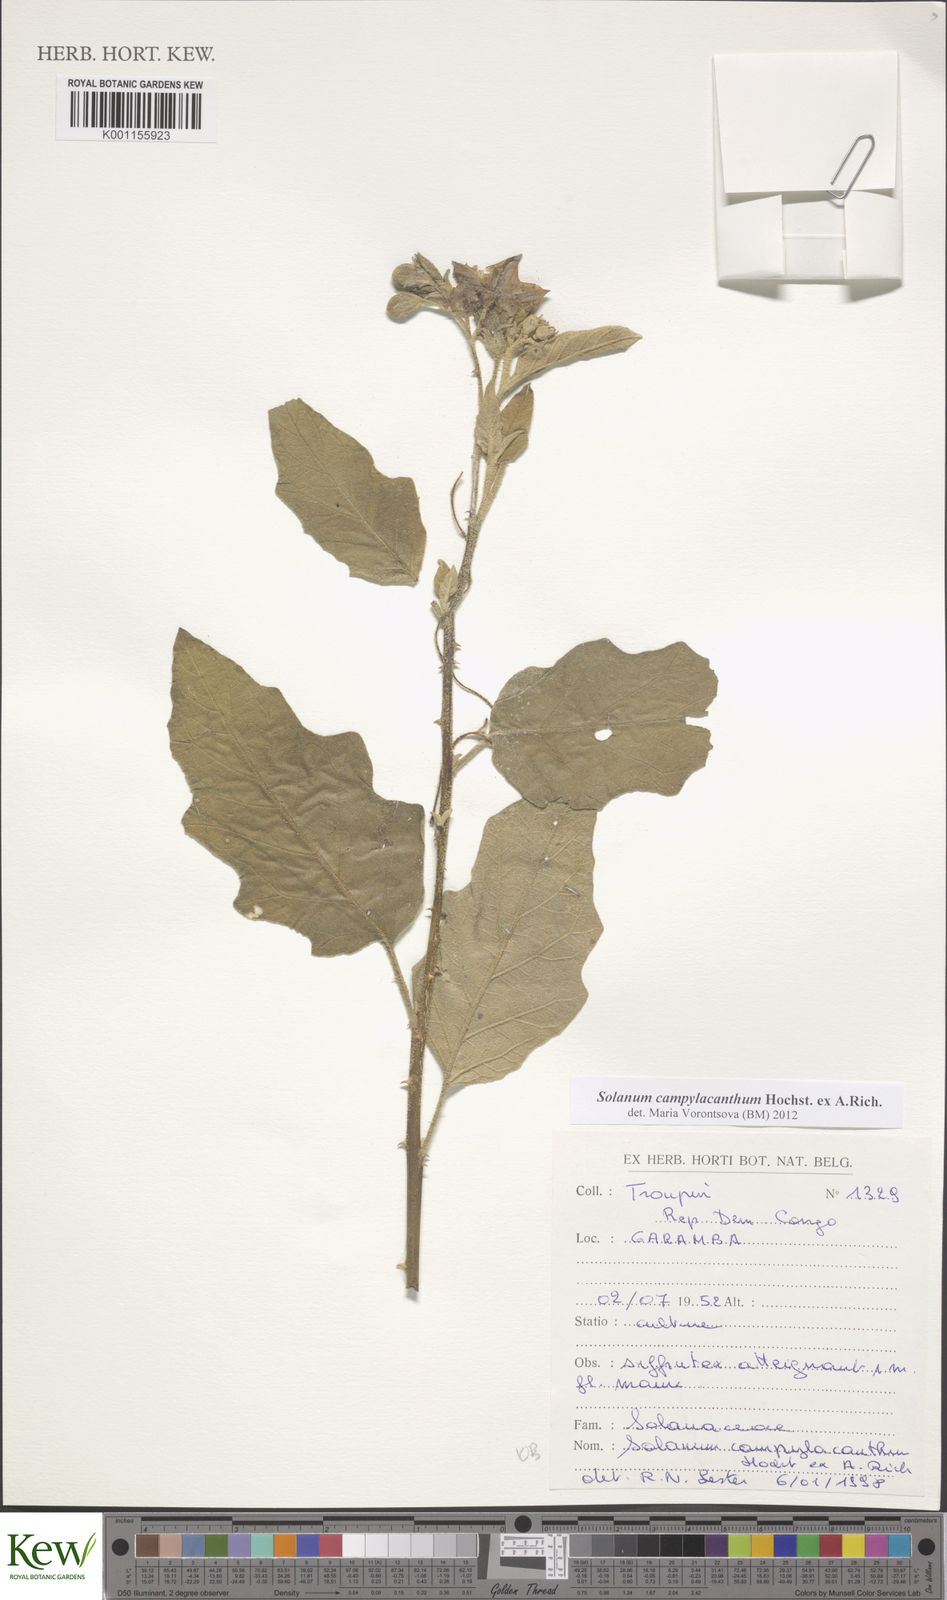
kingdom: Plantae
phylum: Tracheophyta
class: Magnoliopsida
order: Solanales
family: Solanaceae
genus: Solanum
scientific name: Solanum campylacanthum
